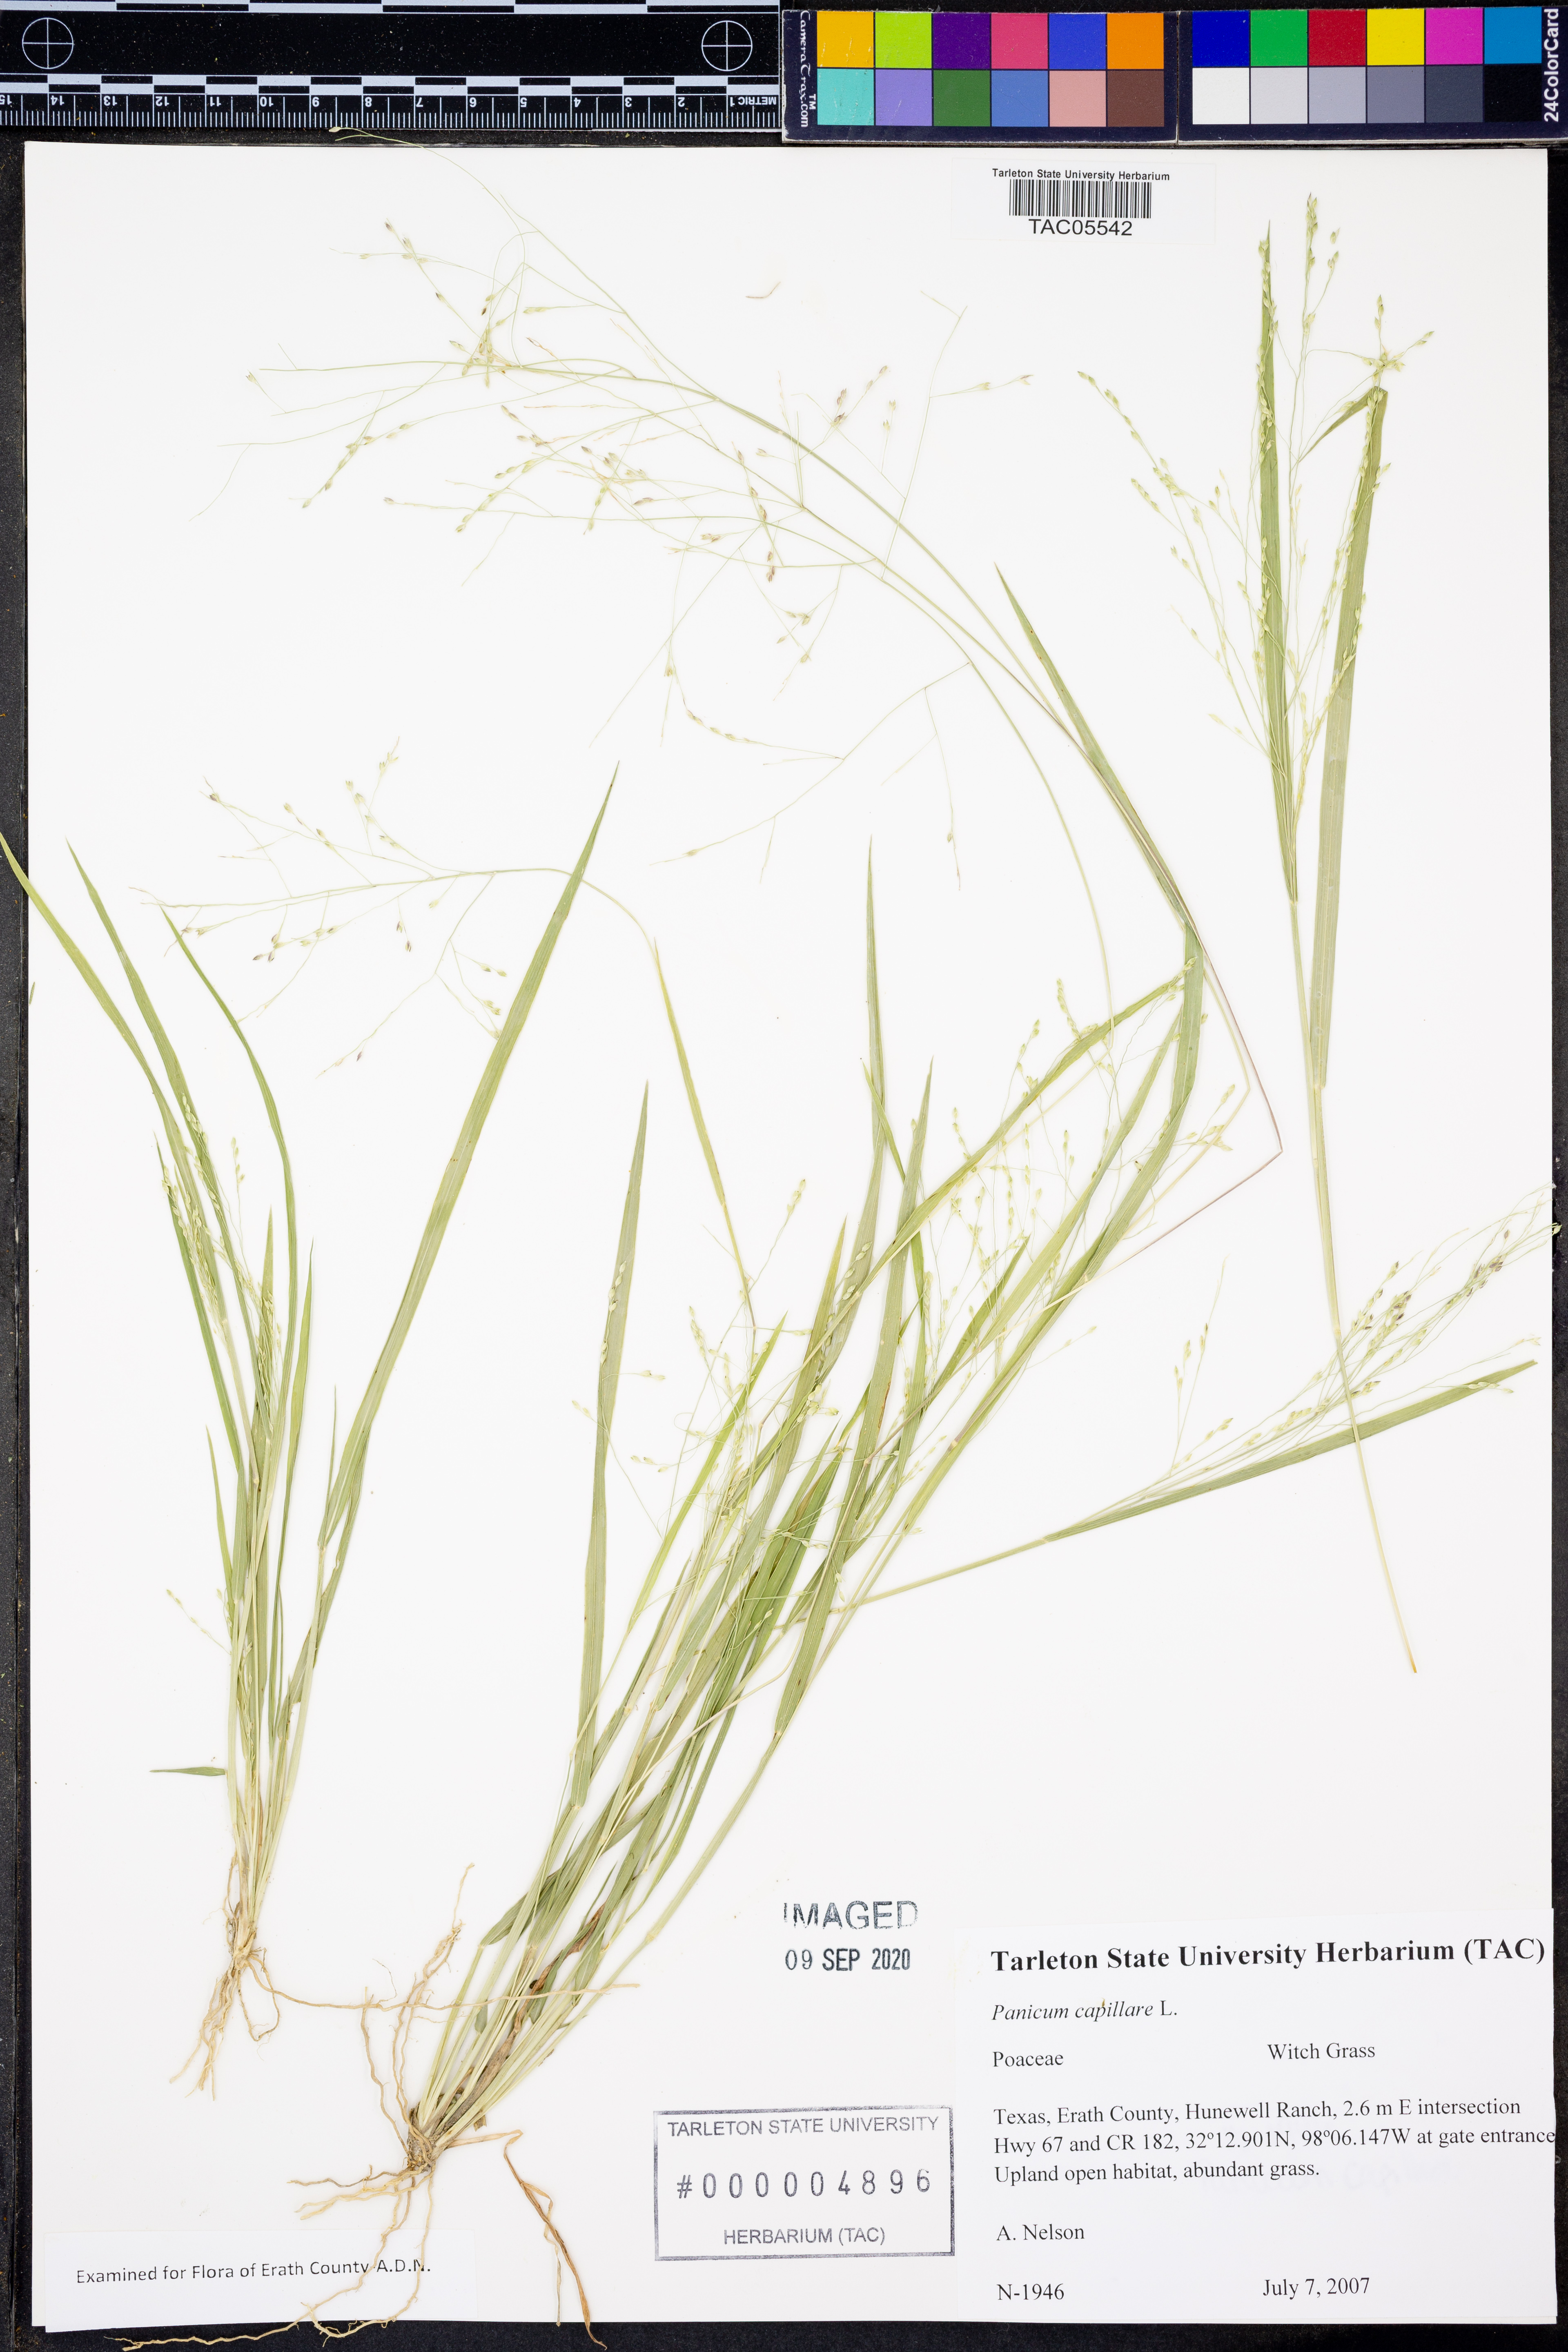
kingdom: Plantae
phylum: Tracheophyta
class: Liliopsida
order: Poales
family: Poaceae
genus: Panicum
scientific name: Panicum capillare
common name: Witch-grass
